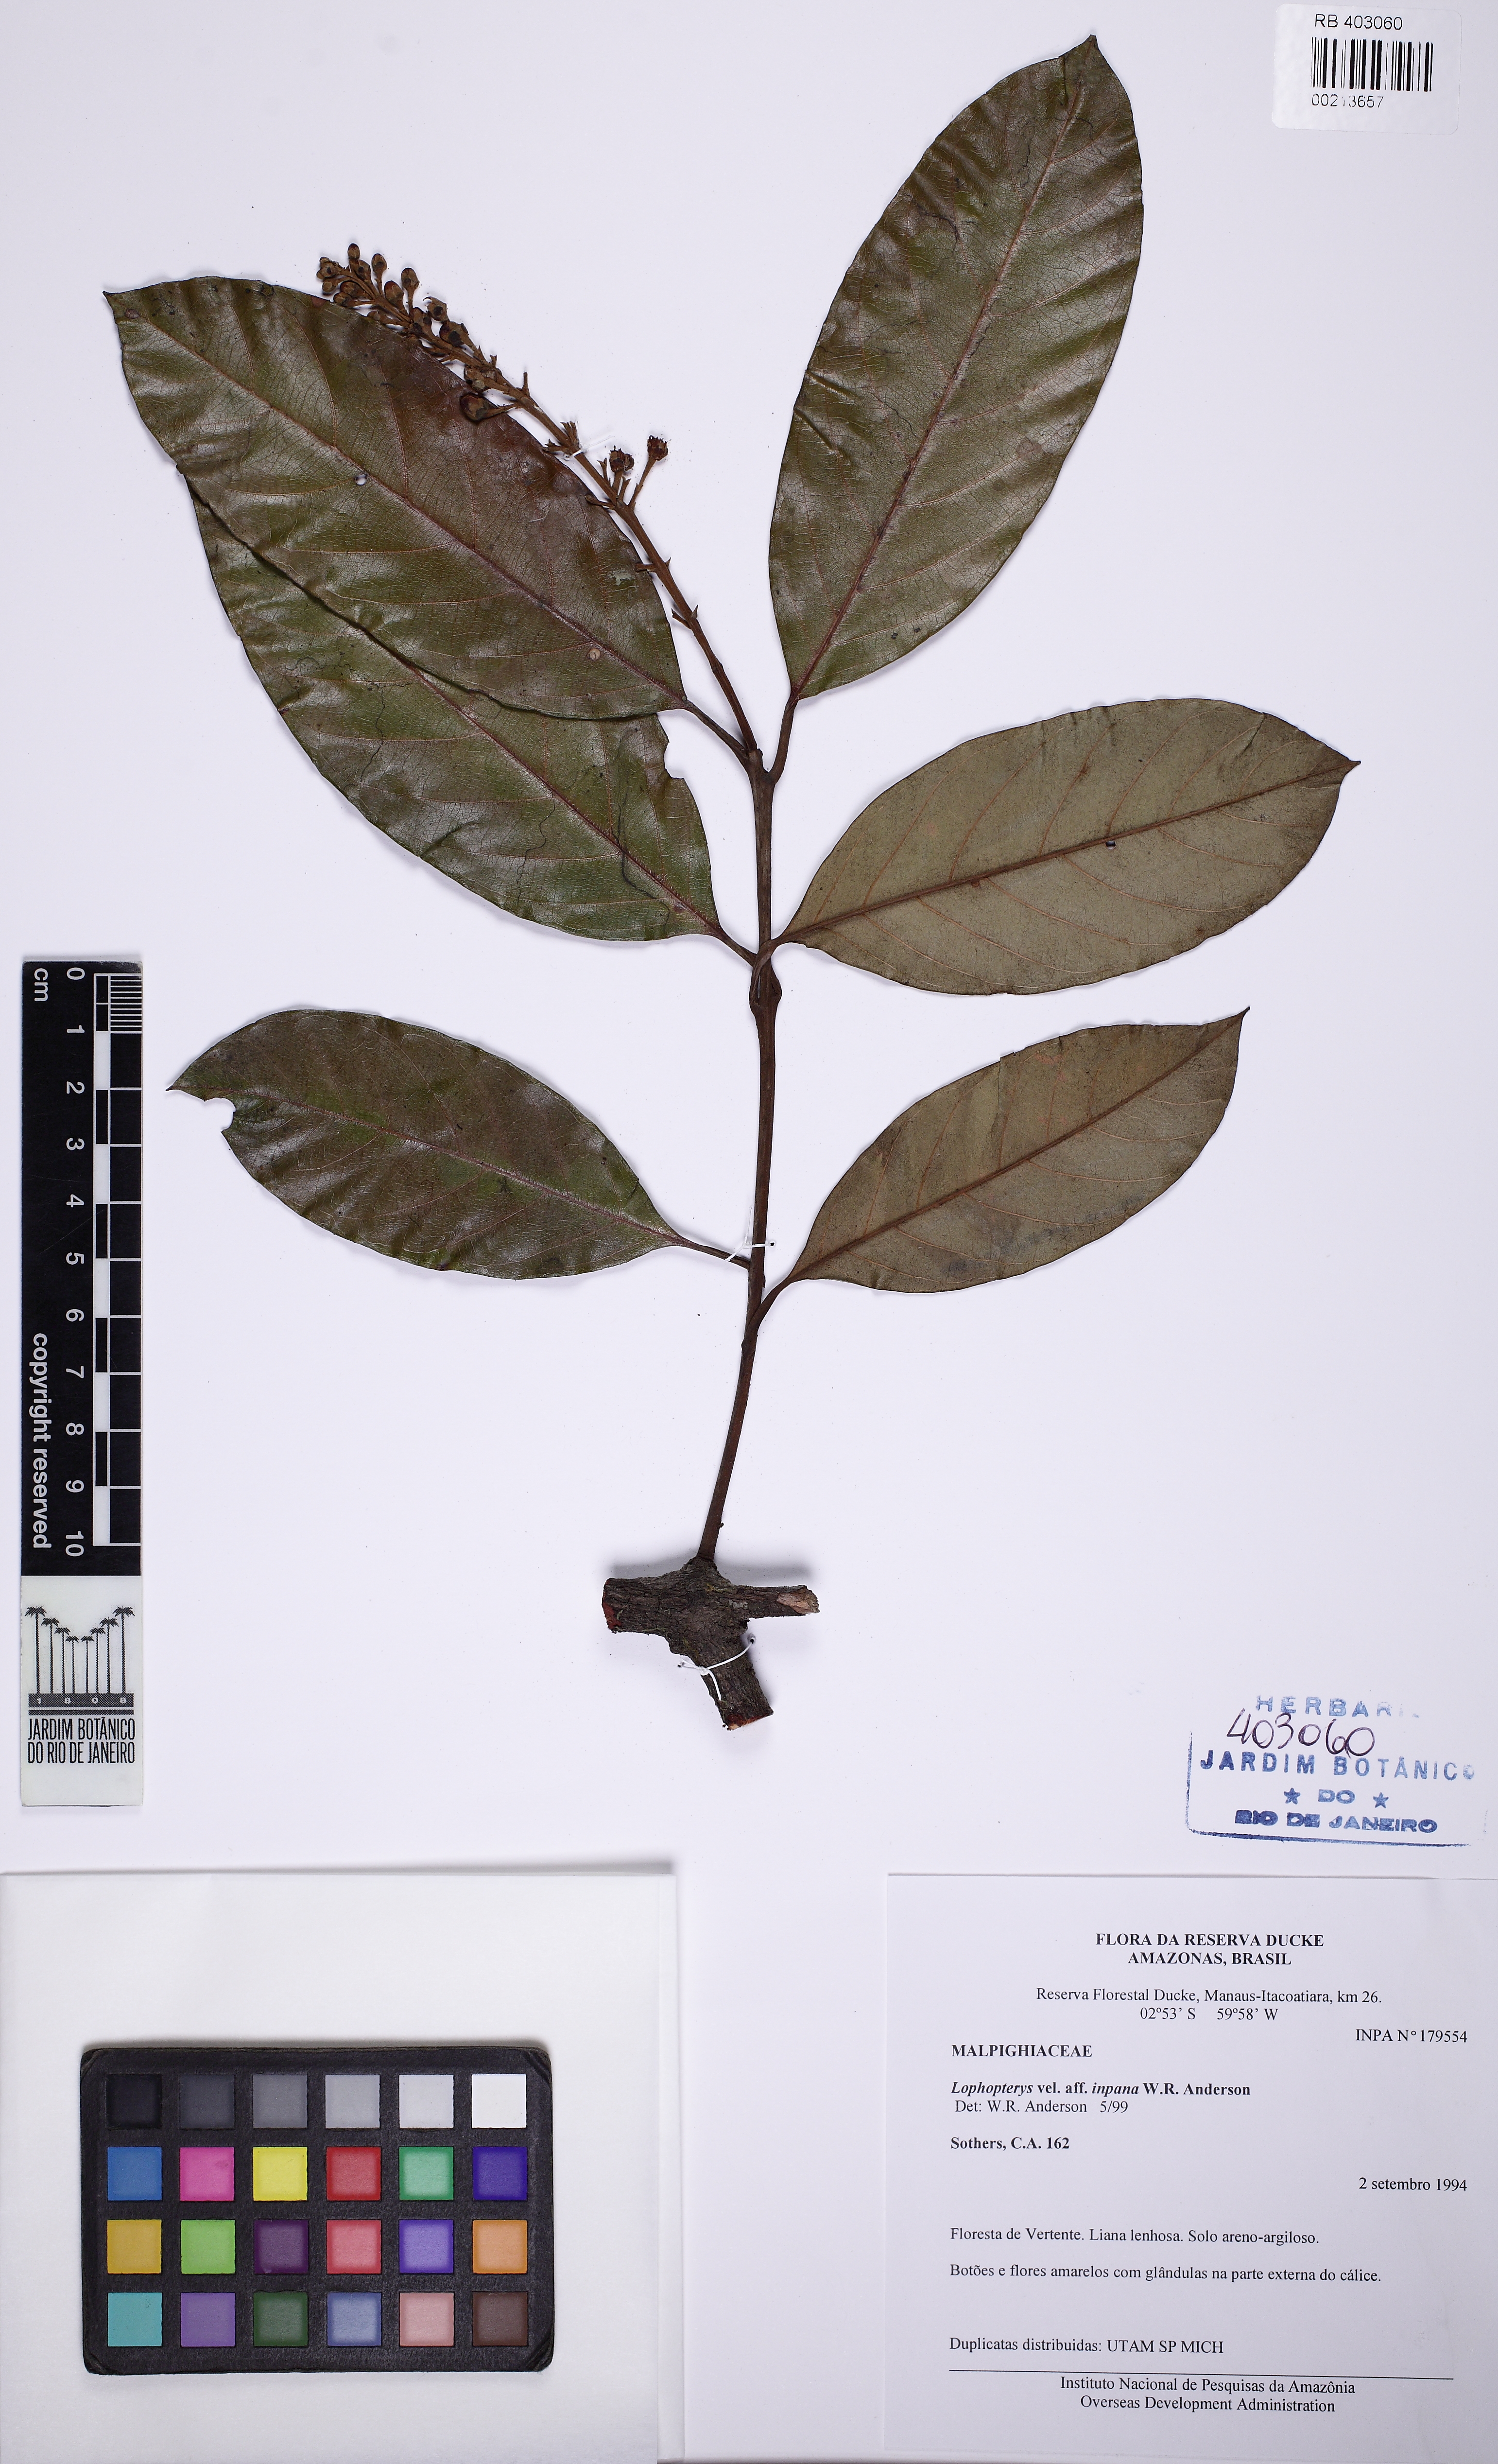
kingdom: Plantae
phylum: Tracheophyta
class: Magnoliopsida
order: Malpighiales
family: Malpighiaceae
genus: Lophopterys
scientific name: Lophopterys inpana
